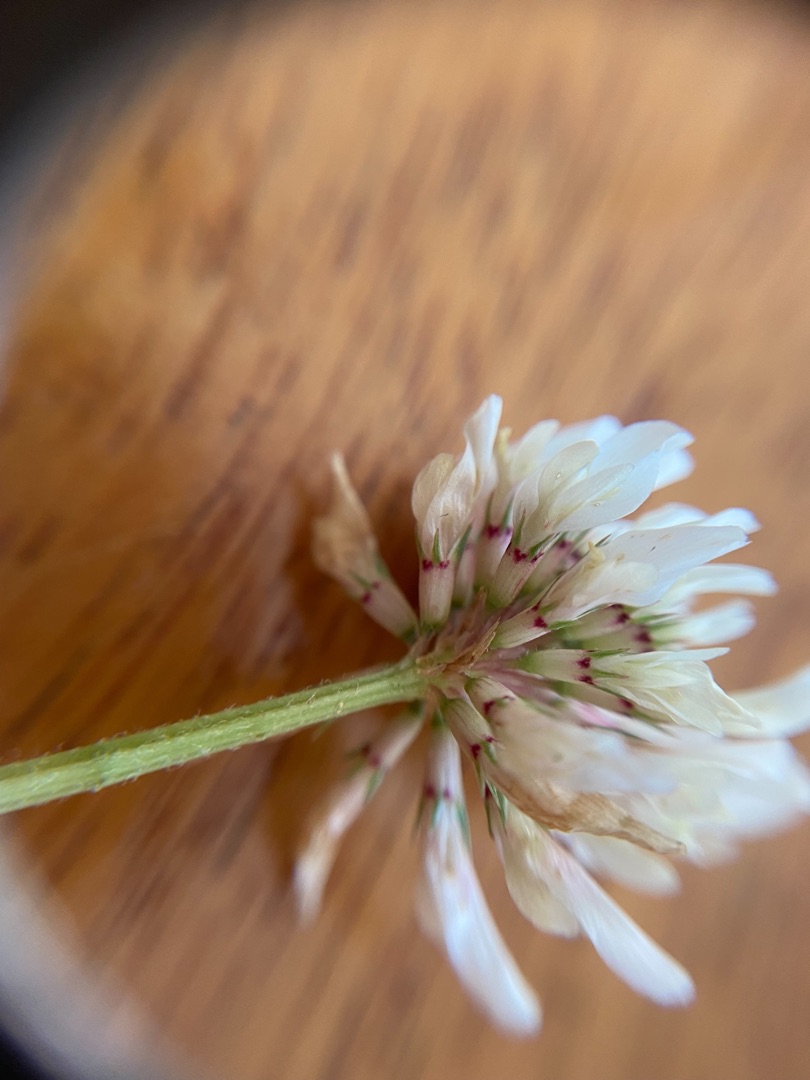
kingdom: Plantae
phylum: Tracheophyta
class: Magnoliopsida
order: Fabales
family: Fabaceae
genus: Trifolium
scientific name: Trifolium repens
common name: Hvid-kløver
